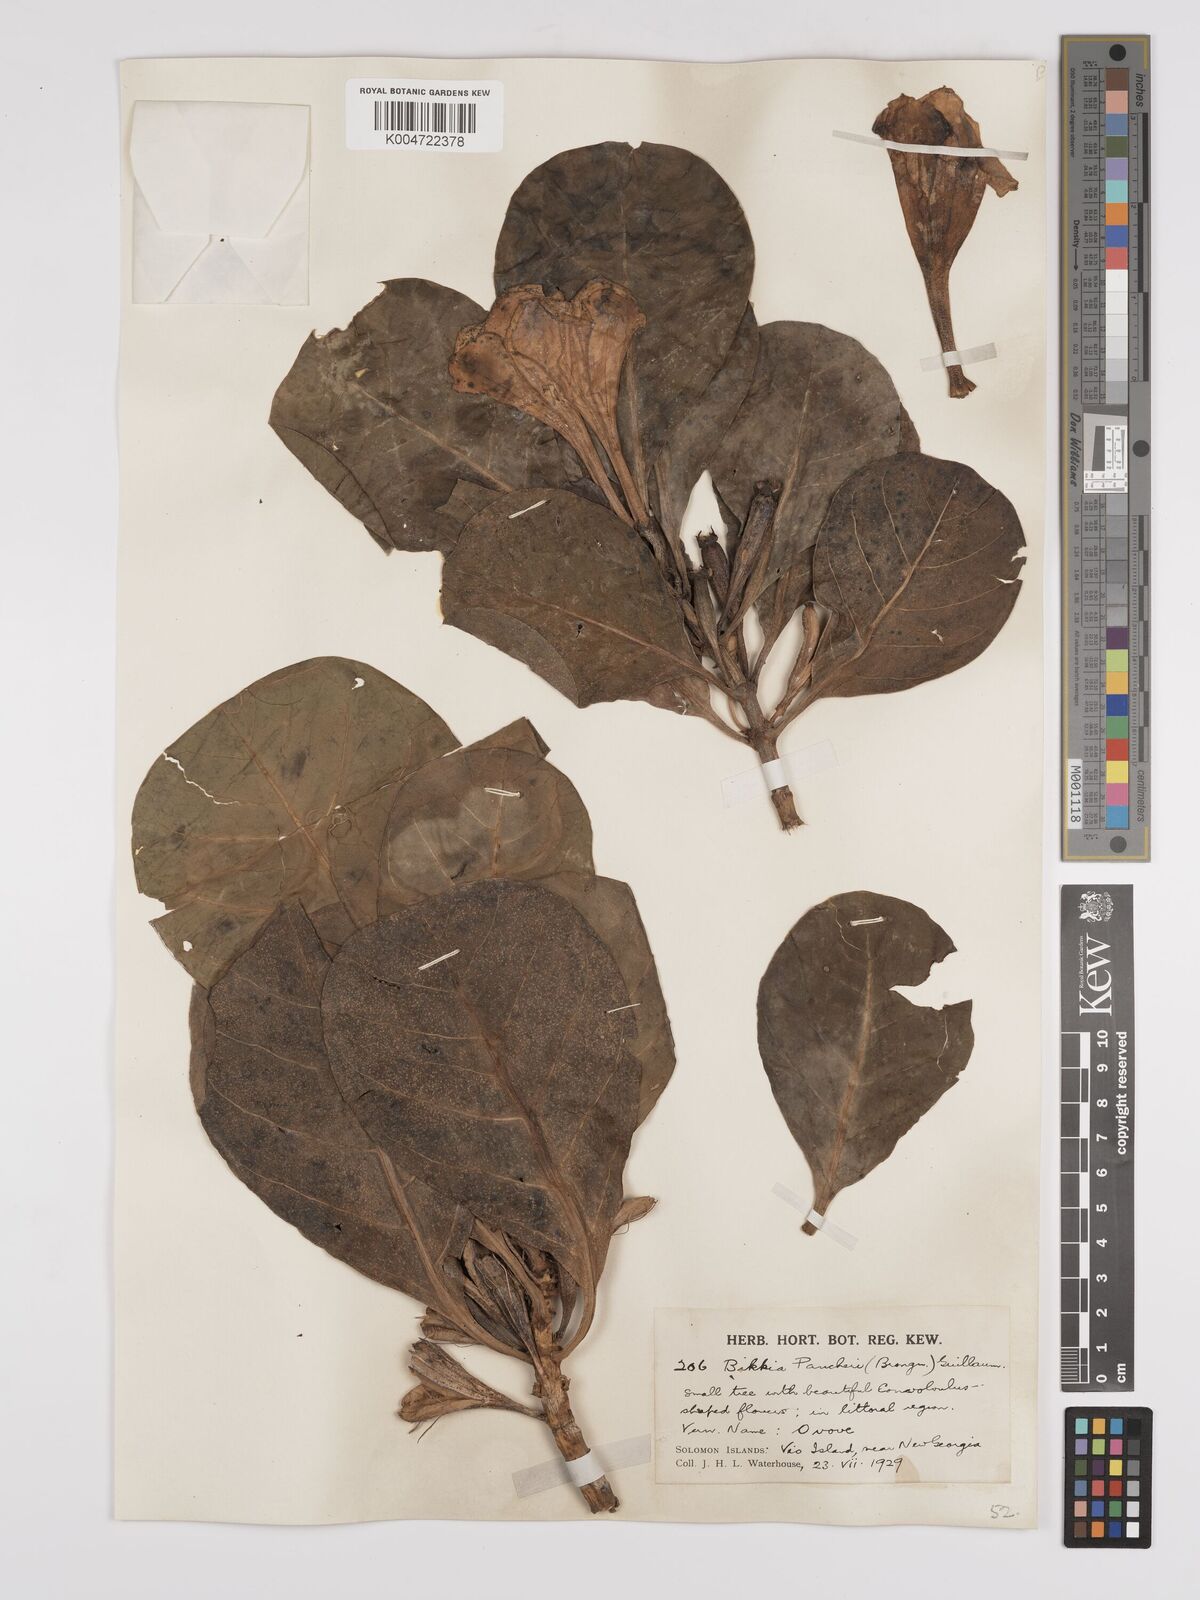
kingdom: Plantae
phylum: Tracheophyta
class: Magnoliopsida
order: Gentianales
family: Rubiaceae
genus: Bikkia
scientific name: Bikkia
